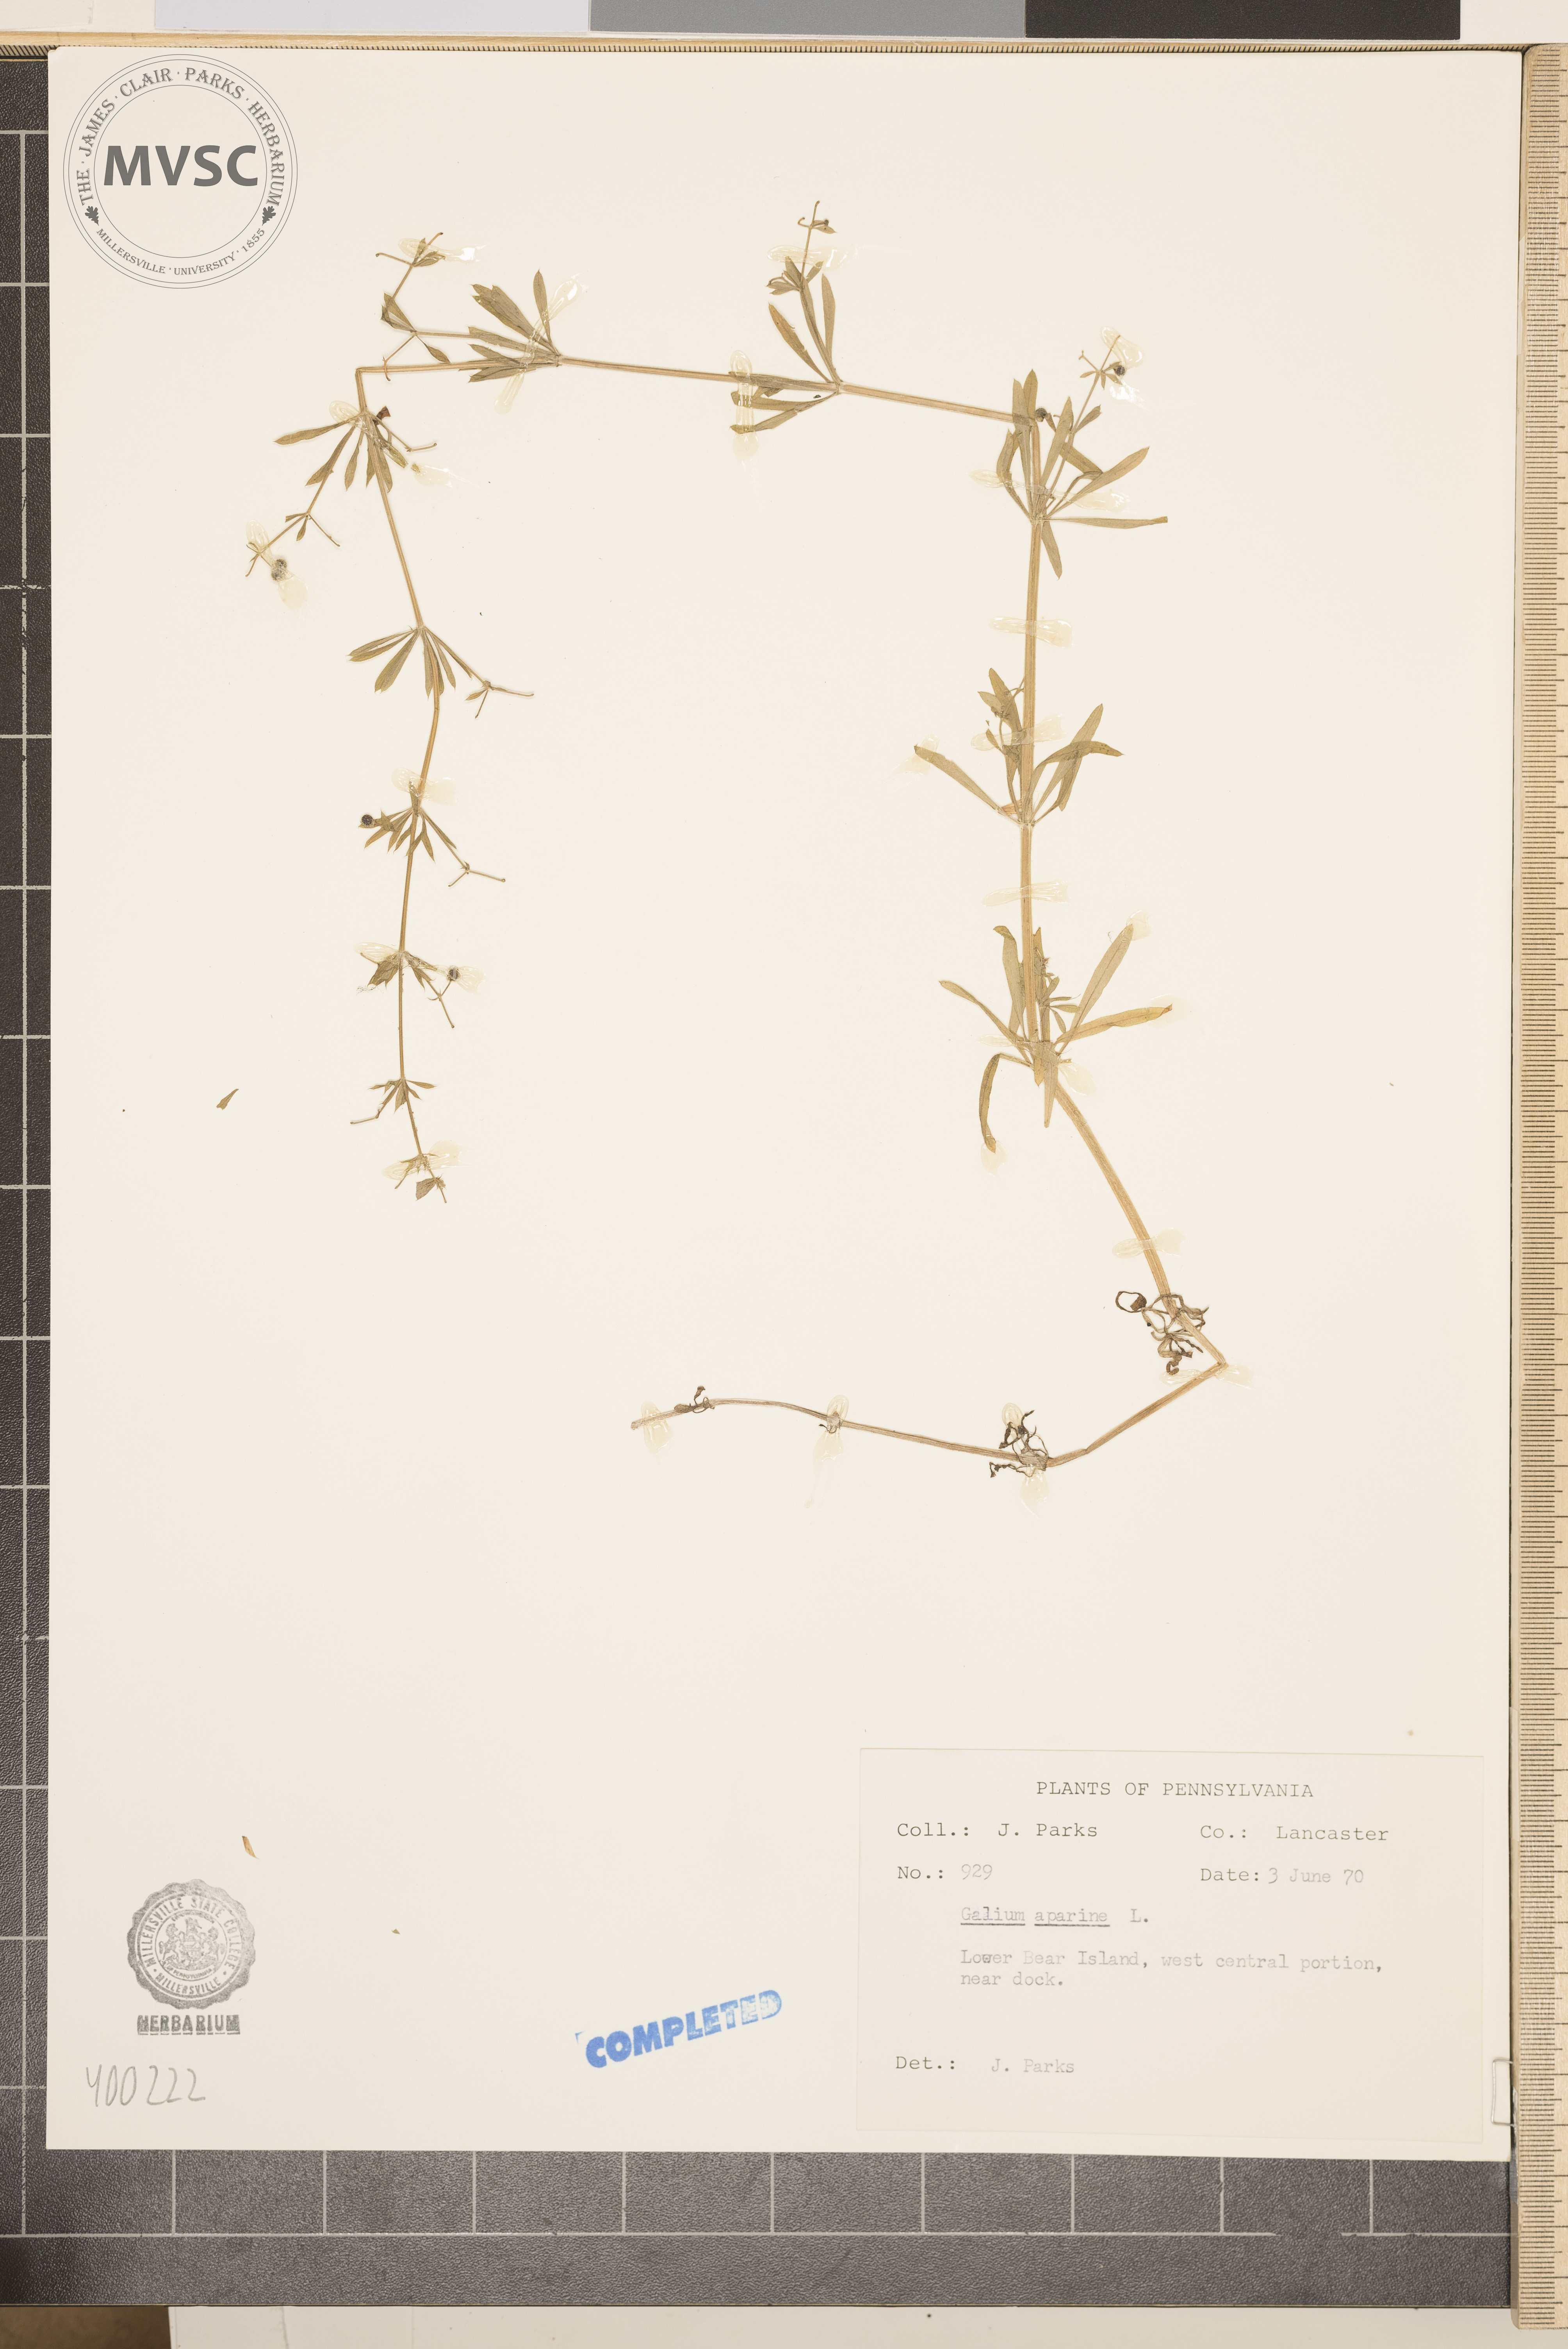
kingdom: Plantae
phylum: Tracheophyta
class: Magnoliopsida
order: Gentianales
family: Rubiaceae
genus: Galium
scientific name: Galium aparine
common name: bedstraw
